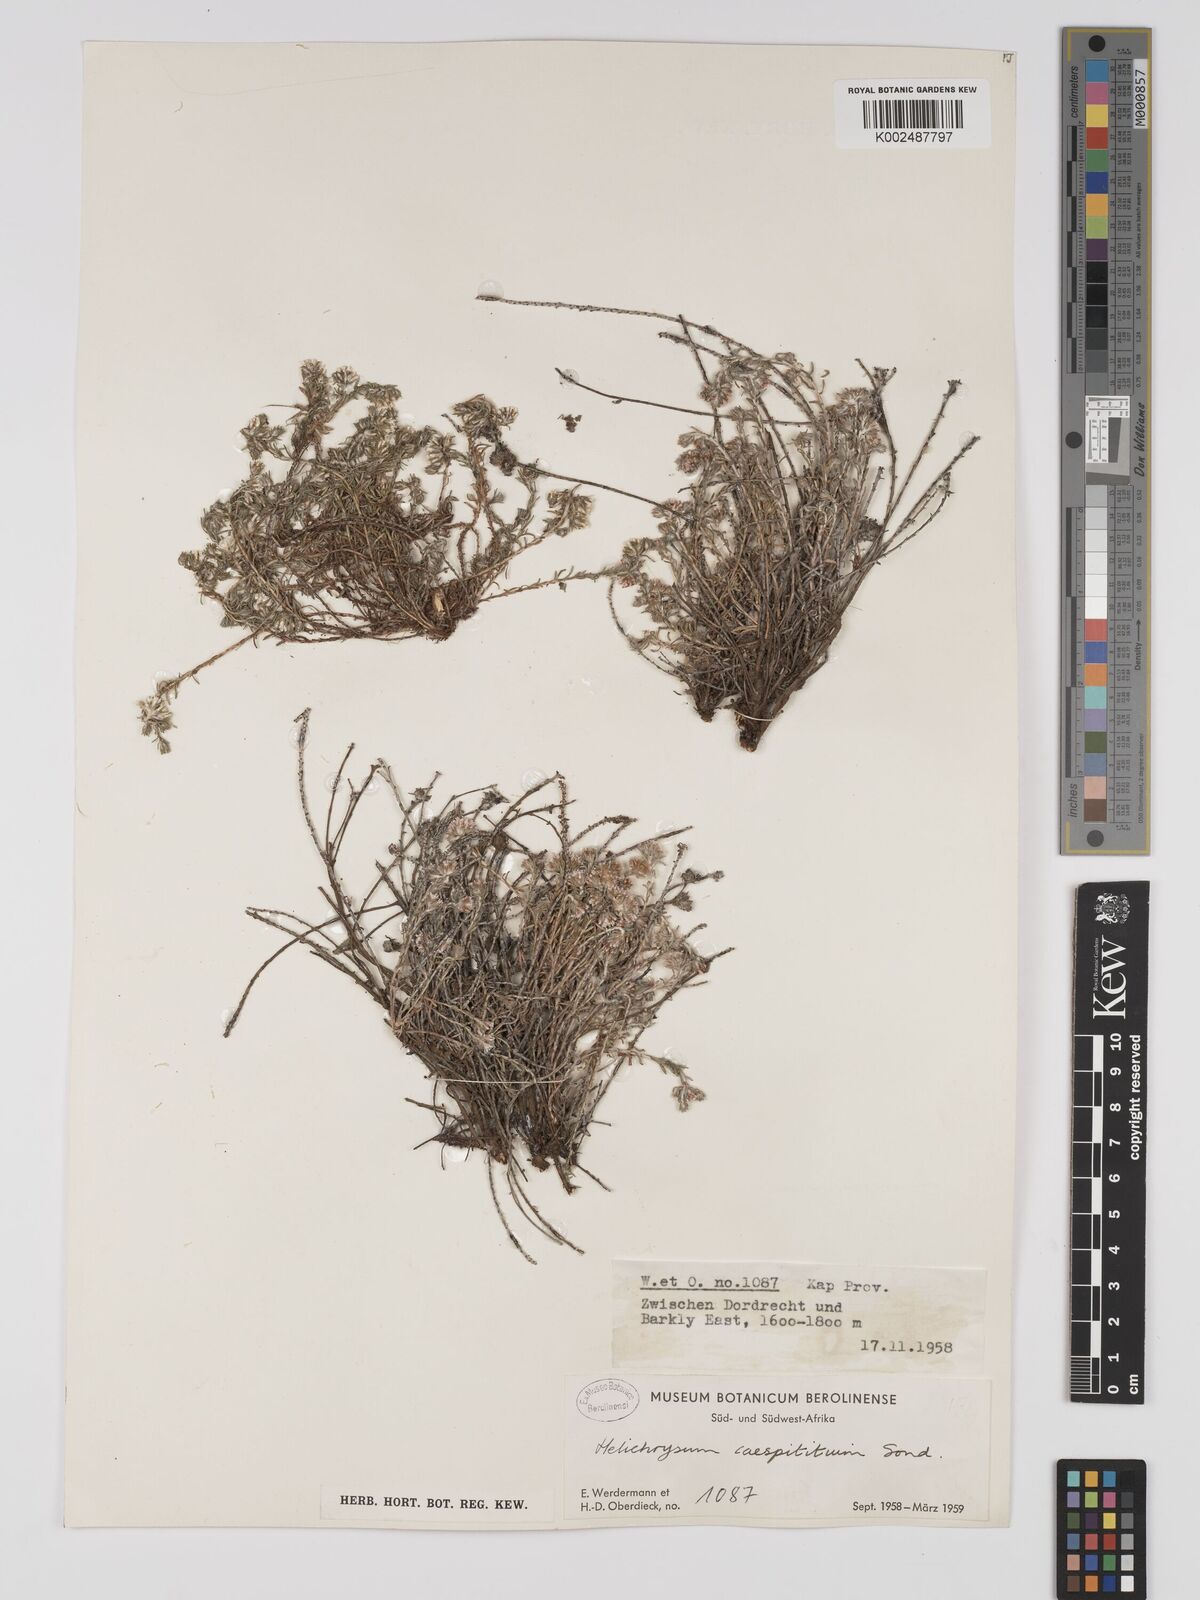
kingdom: Plantae
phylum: Tracheophyta
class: Magnoliopsida
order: Asterales
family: Asteraceae
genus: Helichrysum
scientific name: Helichrysum caespititium
